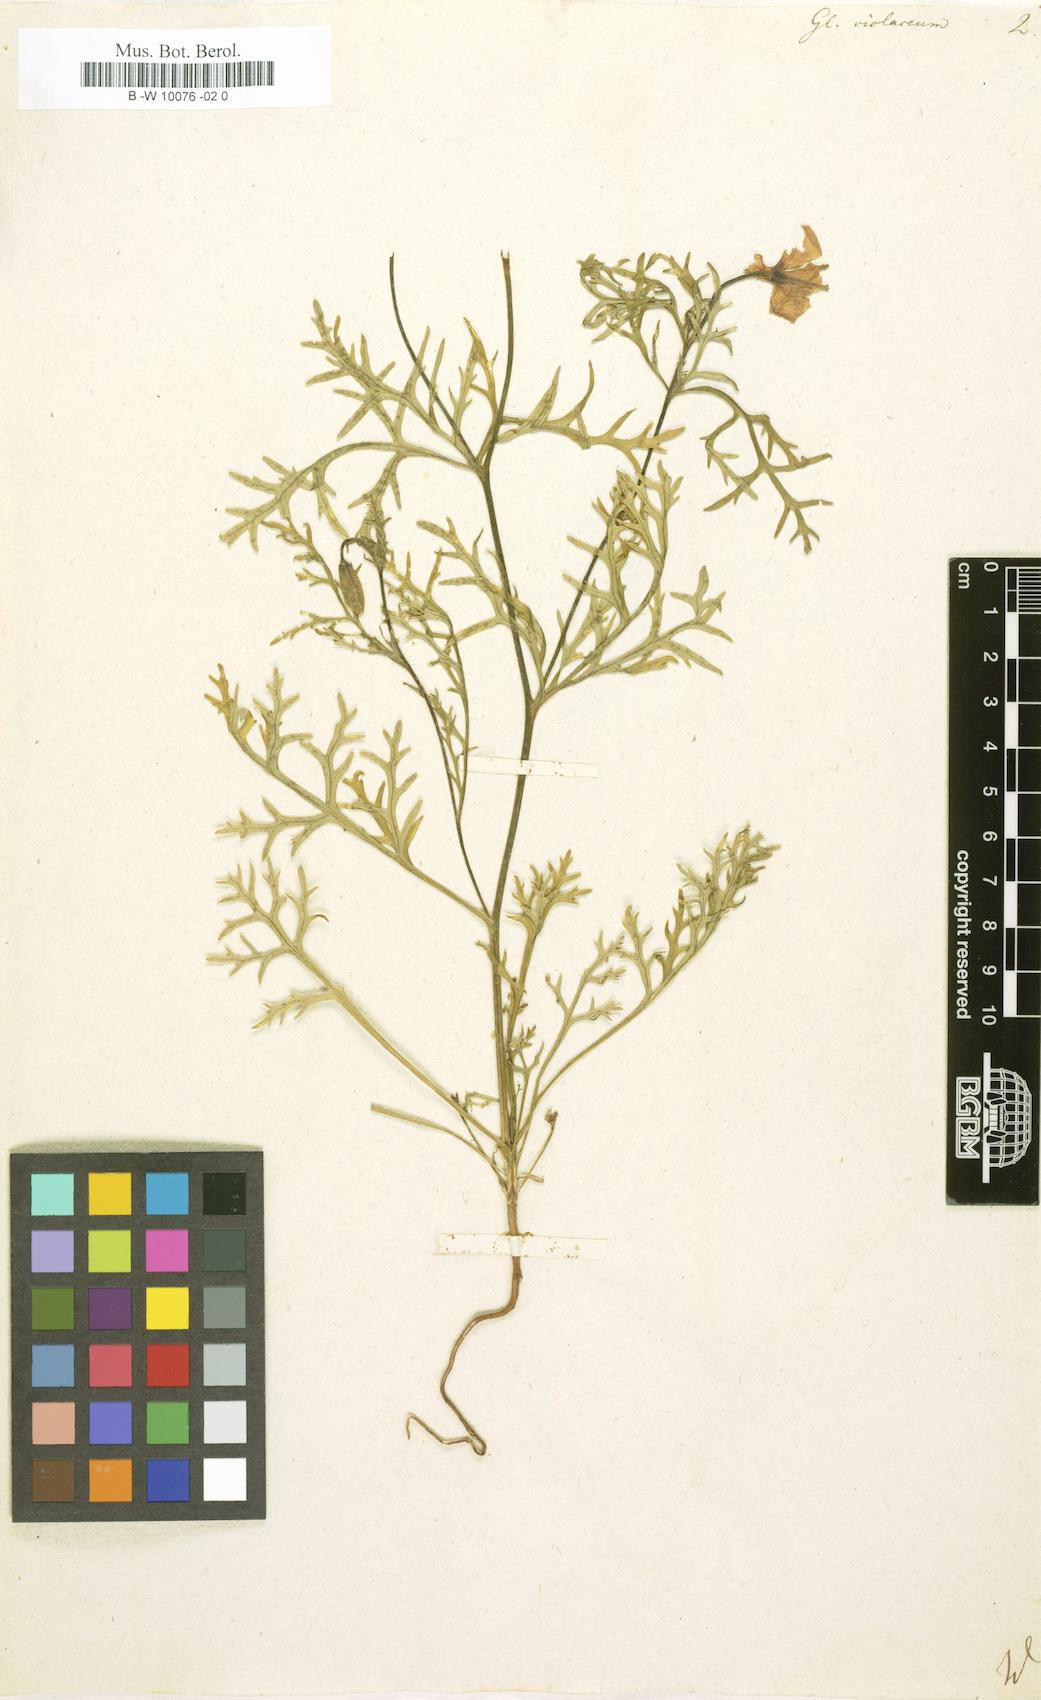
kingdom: Plantae
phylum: Tracheophyta
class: Magnoliopsida
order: Ranunculales
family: Papaveraceae
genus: Roemeria
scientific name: Roemeria hybrida
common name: Violet horned-poppy
